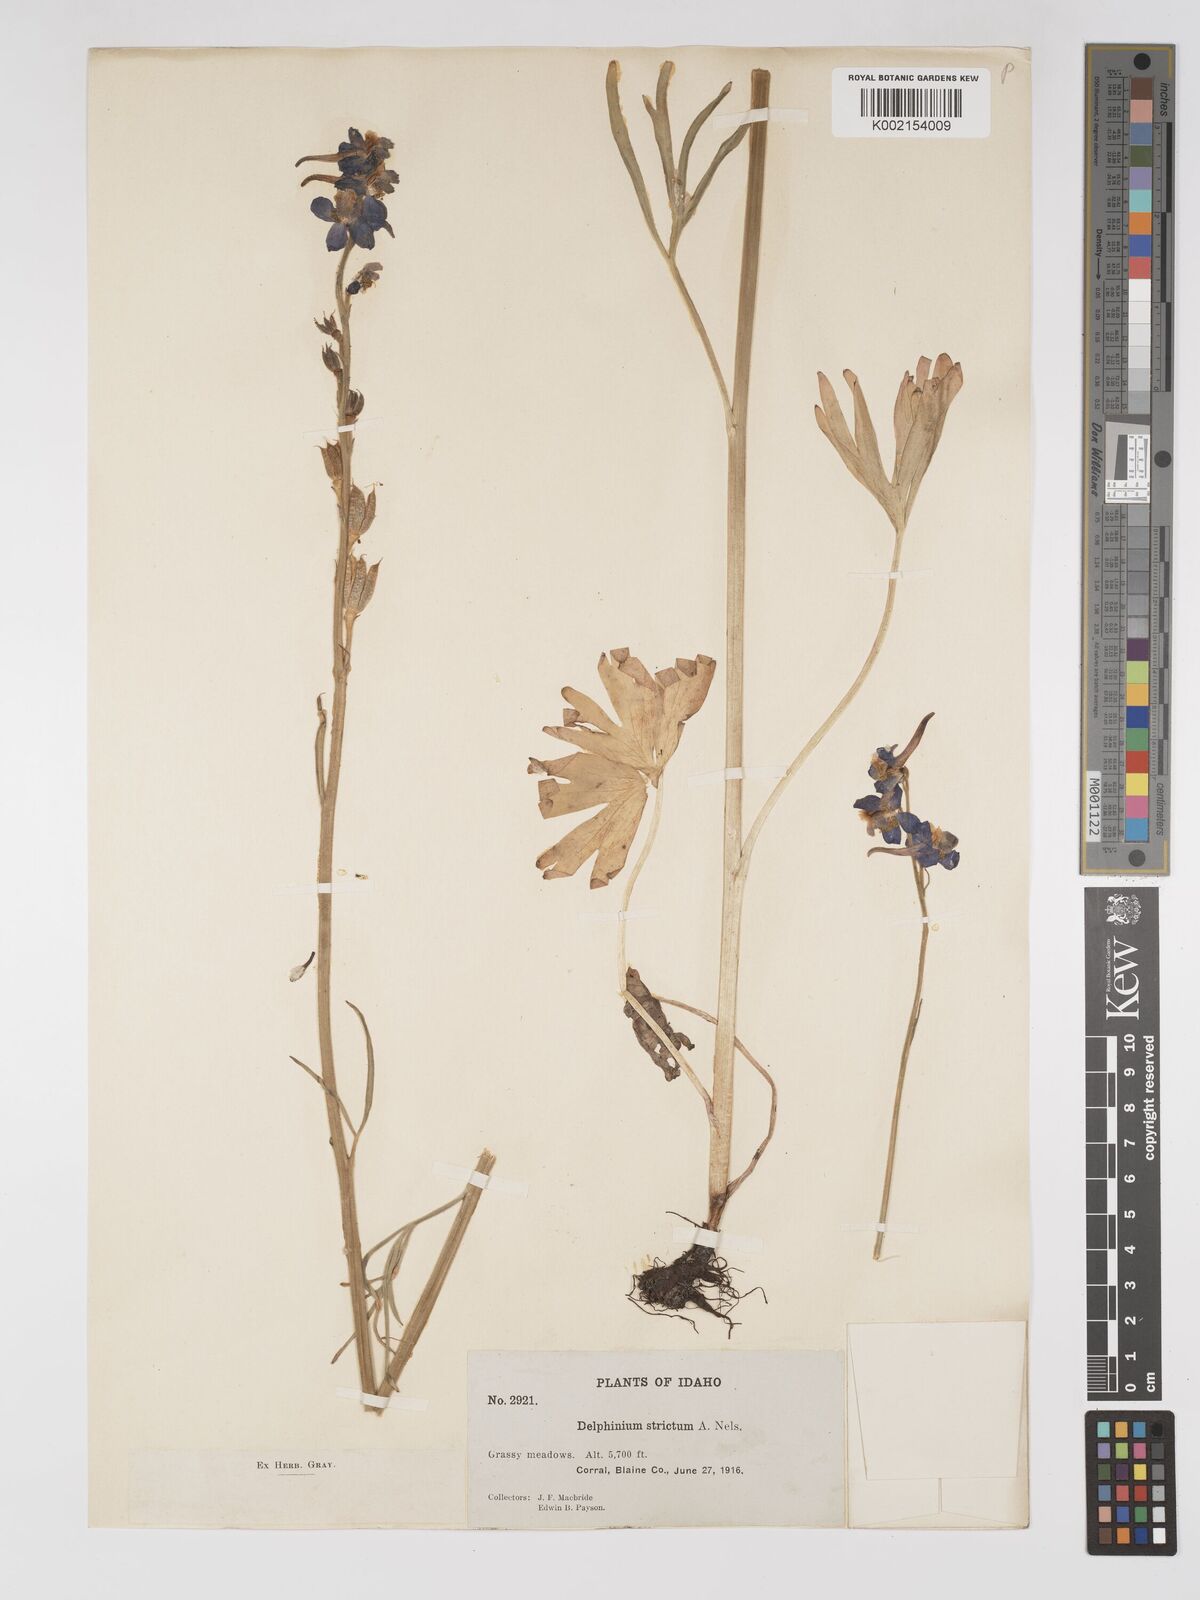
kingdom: Plantae
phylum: Tracheophyta
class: Magnoliopsida
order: Ranunculales
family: Ranunculaceae
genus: Delphinium
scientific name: Delphinium distichum
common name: Meadow larkspur
